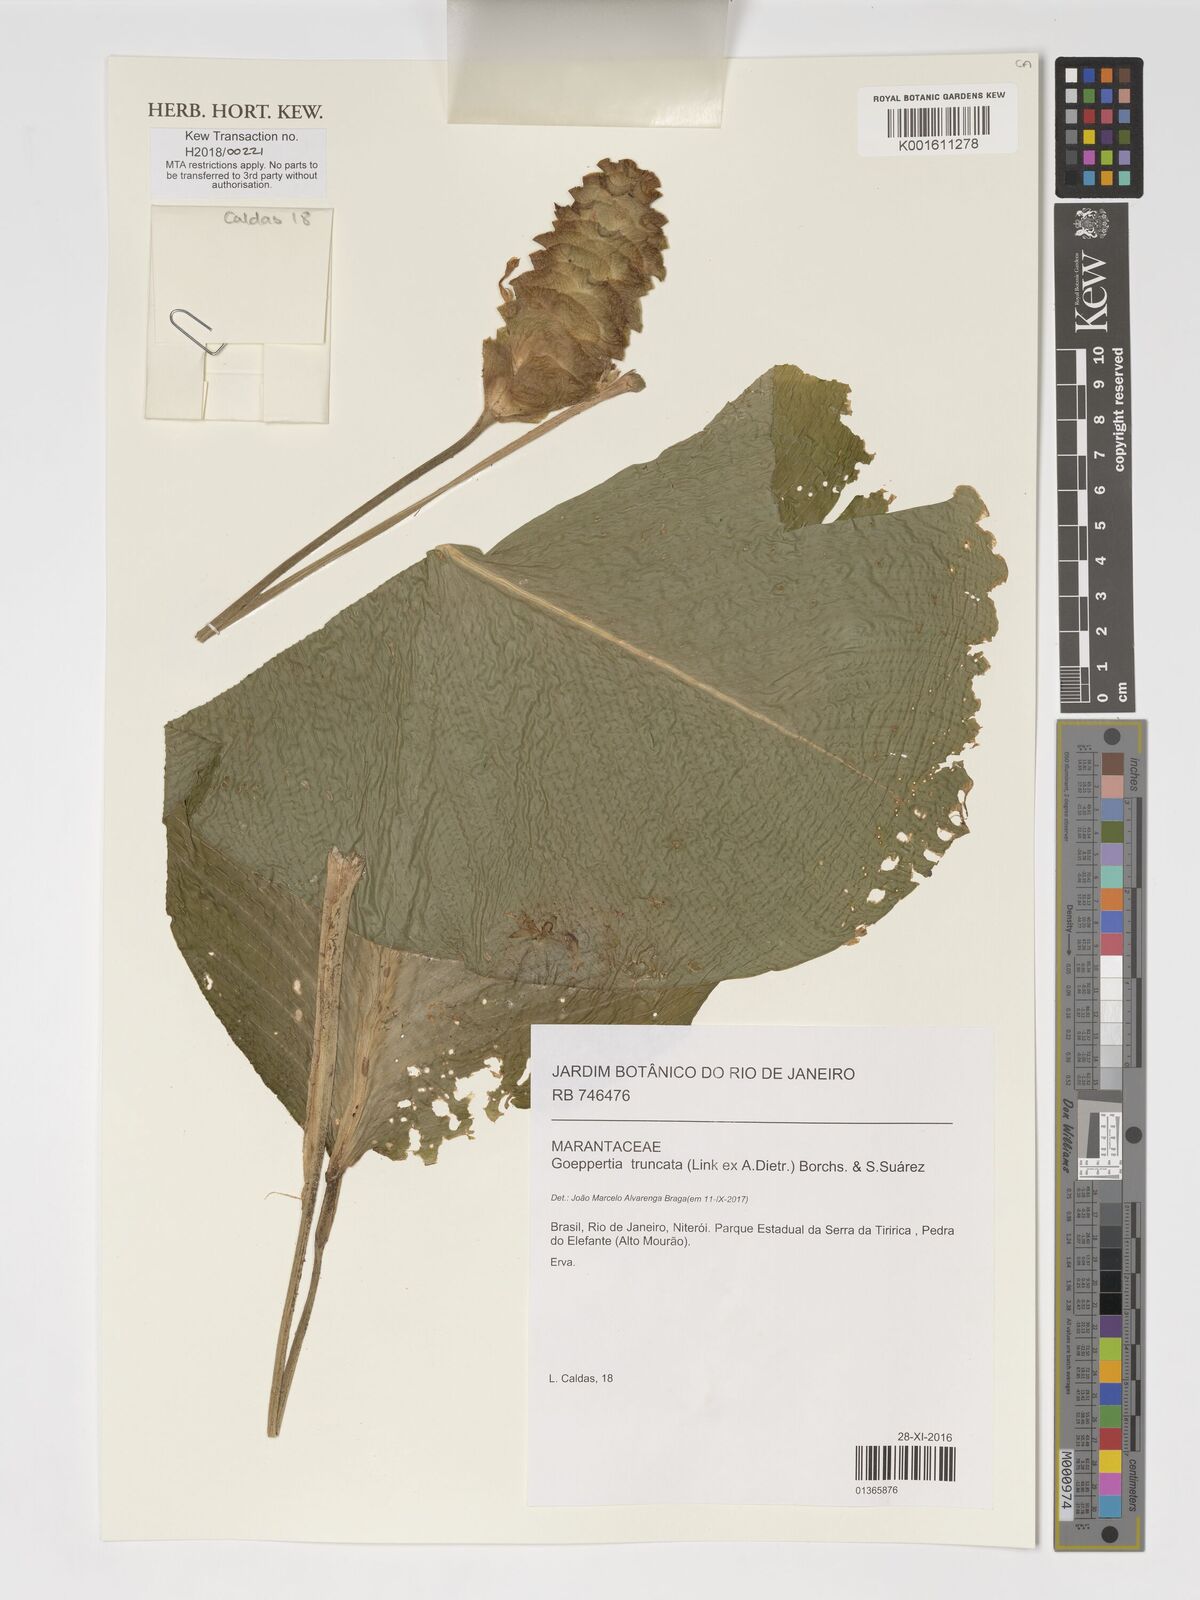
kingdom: Plantae
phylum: Tracheophyta
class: Liliopsida
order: Zingiberales
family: Marantaceae
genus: Goeppertia
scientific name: Goeppertia truncata
